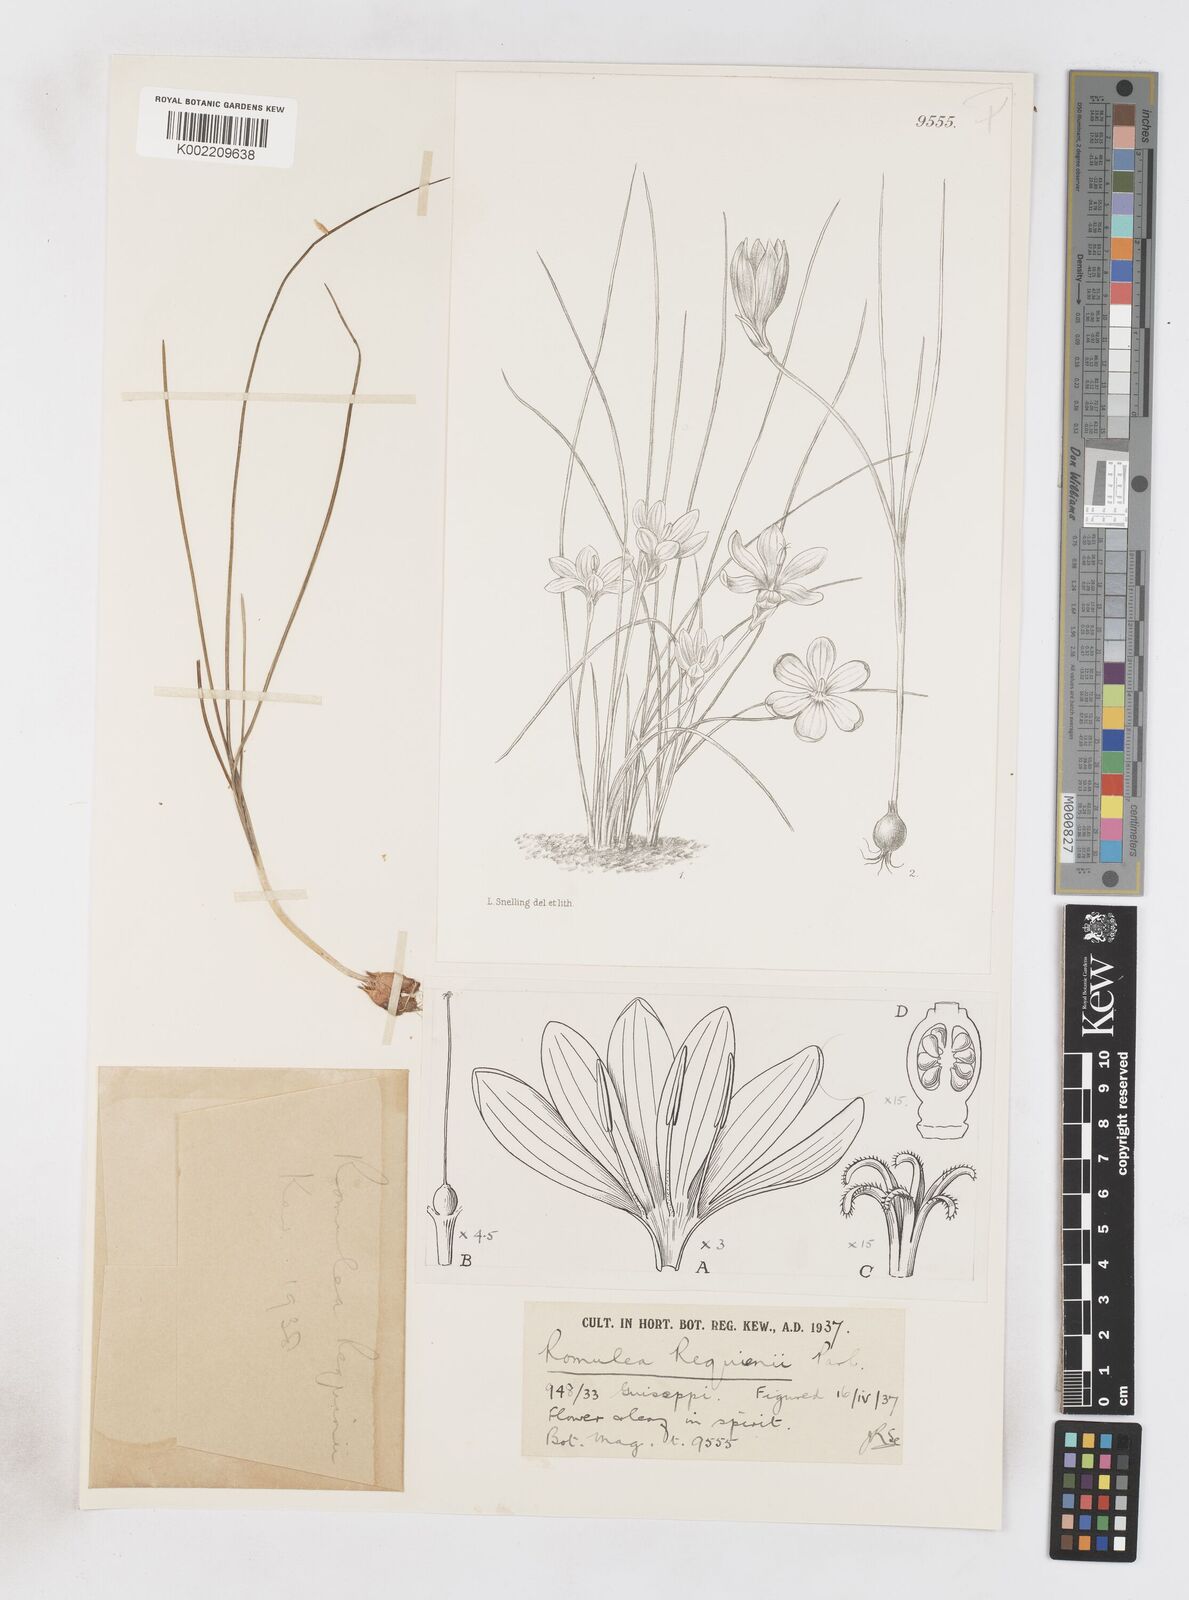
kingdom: Plantae
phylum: Tracheophyta
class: Liliopsida
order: Asparagales
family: Iridaceae
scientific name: Iridaceae
